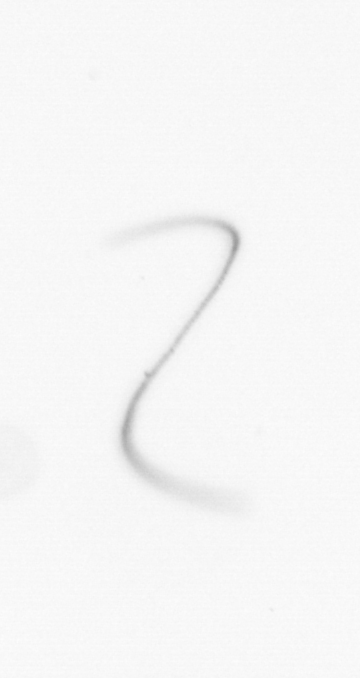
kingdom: Chromista
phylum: Ochrophyta
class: Bacillariophyceae
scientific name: Bacillariophyceae
